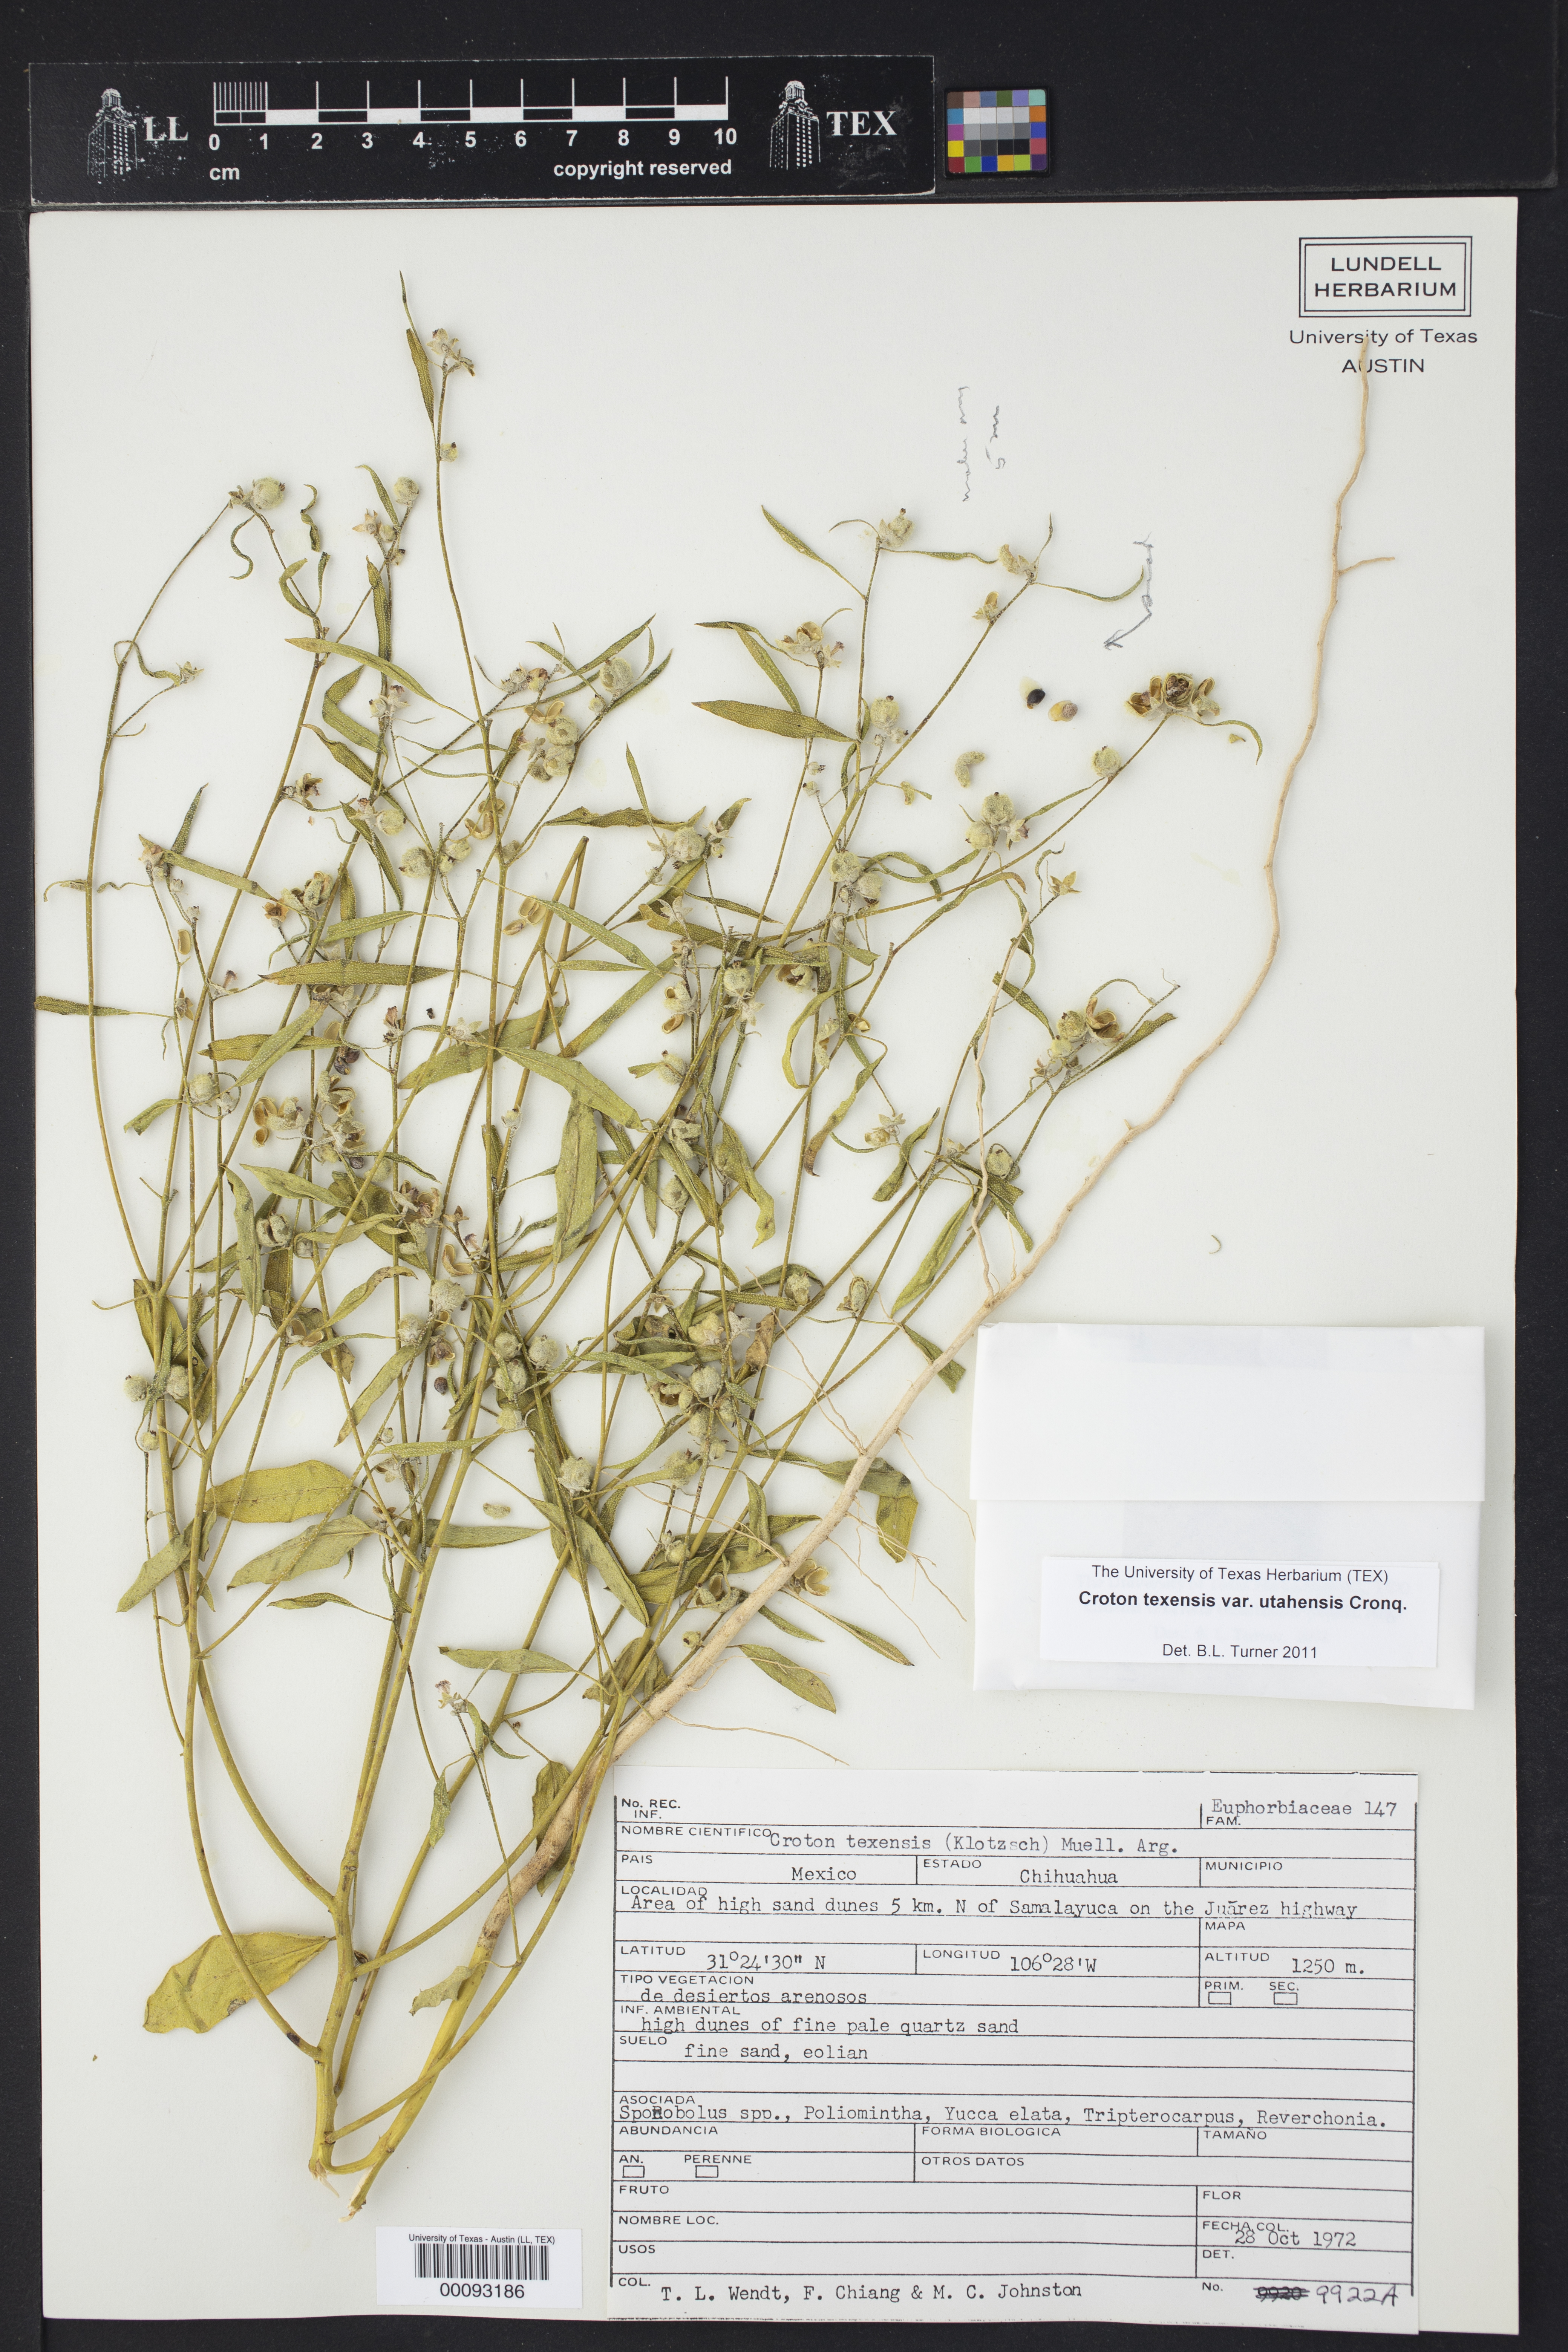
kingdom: Plantae
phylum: Tracheophyta
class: Magnoliopsida
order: Malpighiales
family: Euphorbiaceae
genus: Croton
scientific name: Croton texensis
